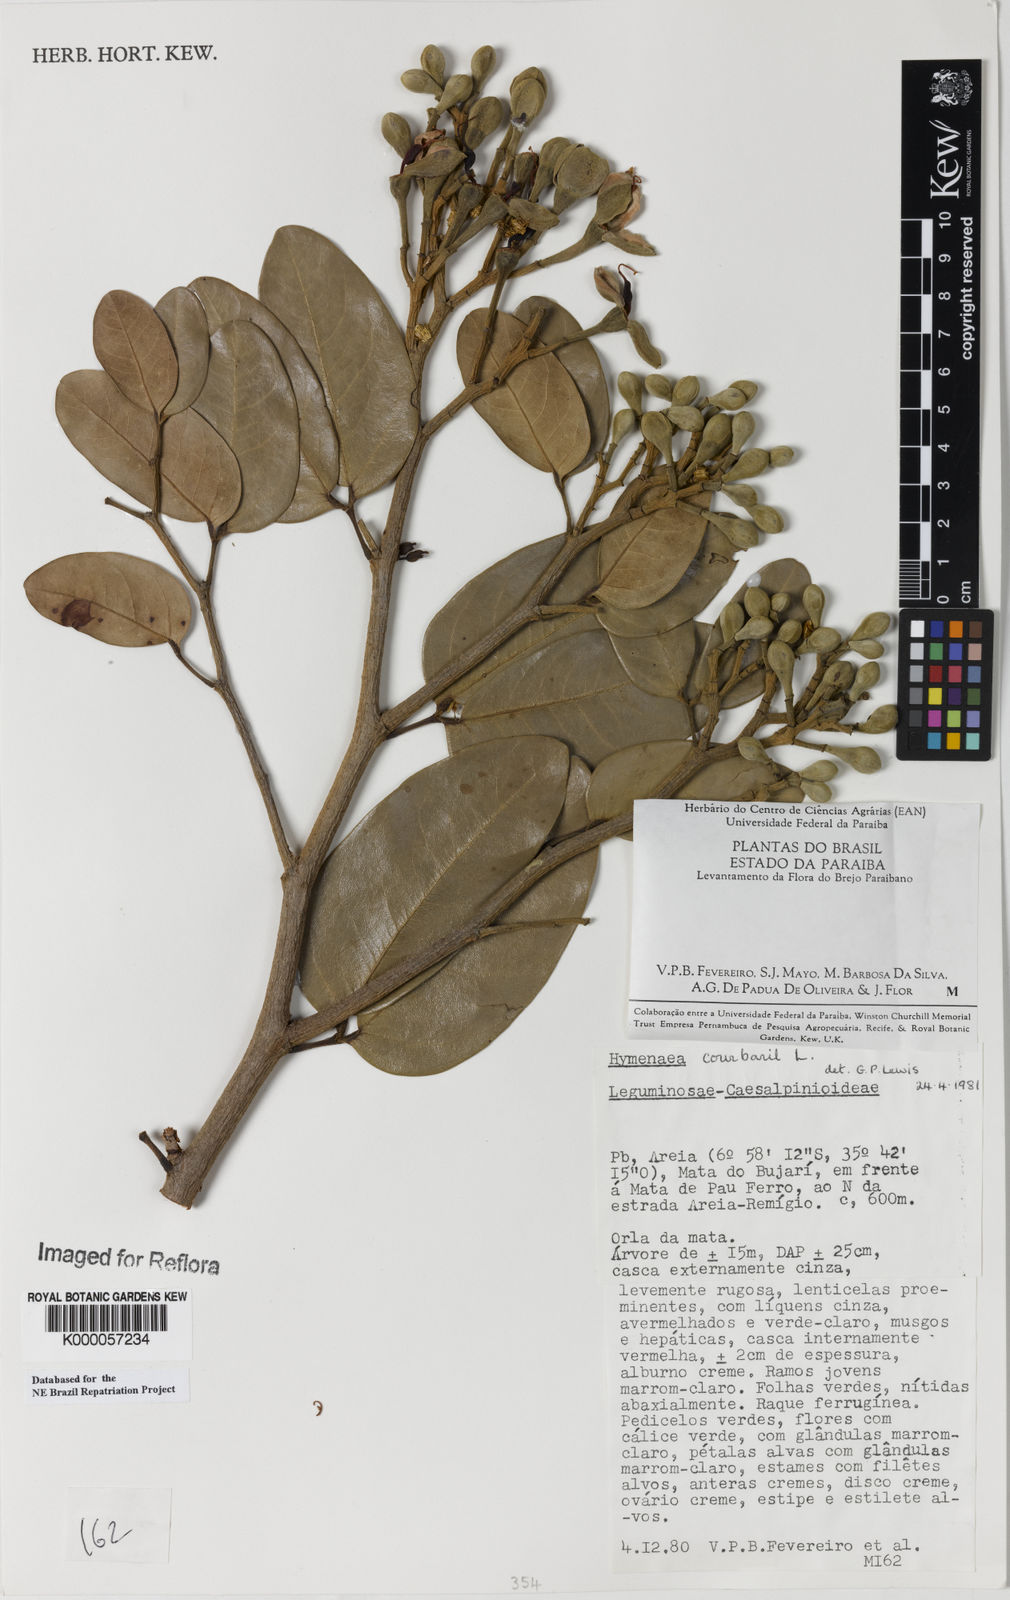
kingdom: Plantae
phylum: Tracheophyta
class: Magnoliopsida
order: Fabales
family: Fabaceae
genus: Hymenaea
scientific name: Hymenaea courbaril
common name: Brazilian copal
